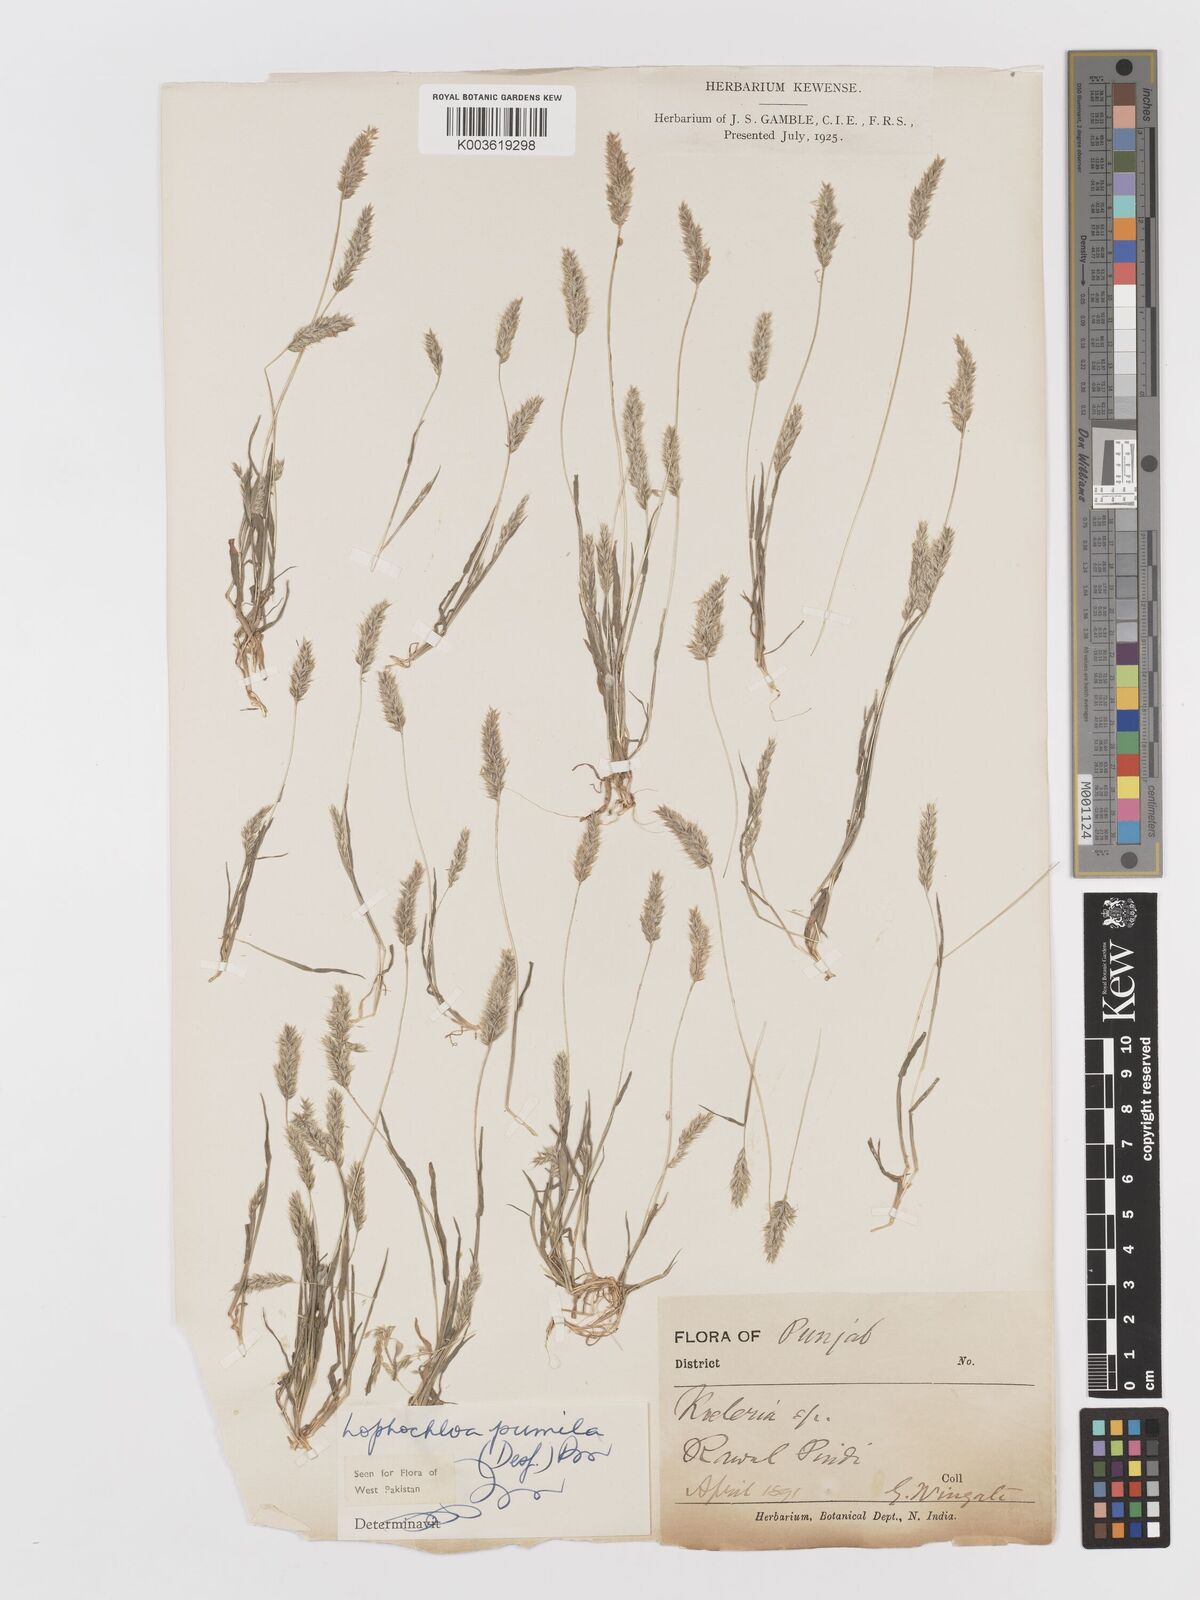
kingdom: Plantae
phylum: Tracheophyta
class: Liliopsida
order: Poales
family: Poaceae
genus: Rostraria
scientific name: Rostraria pumila
